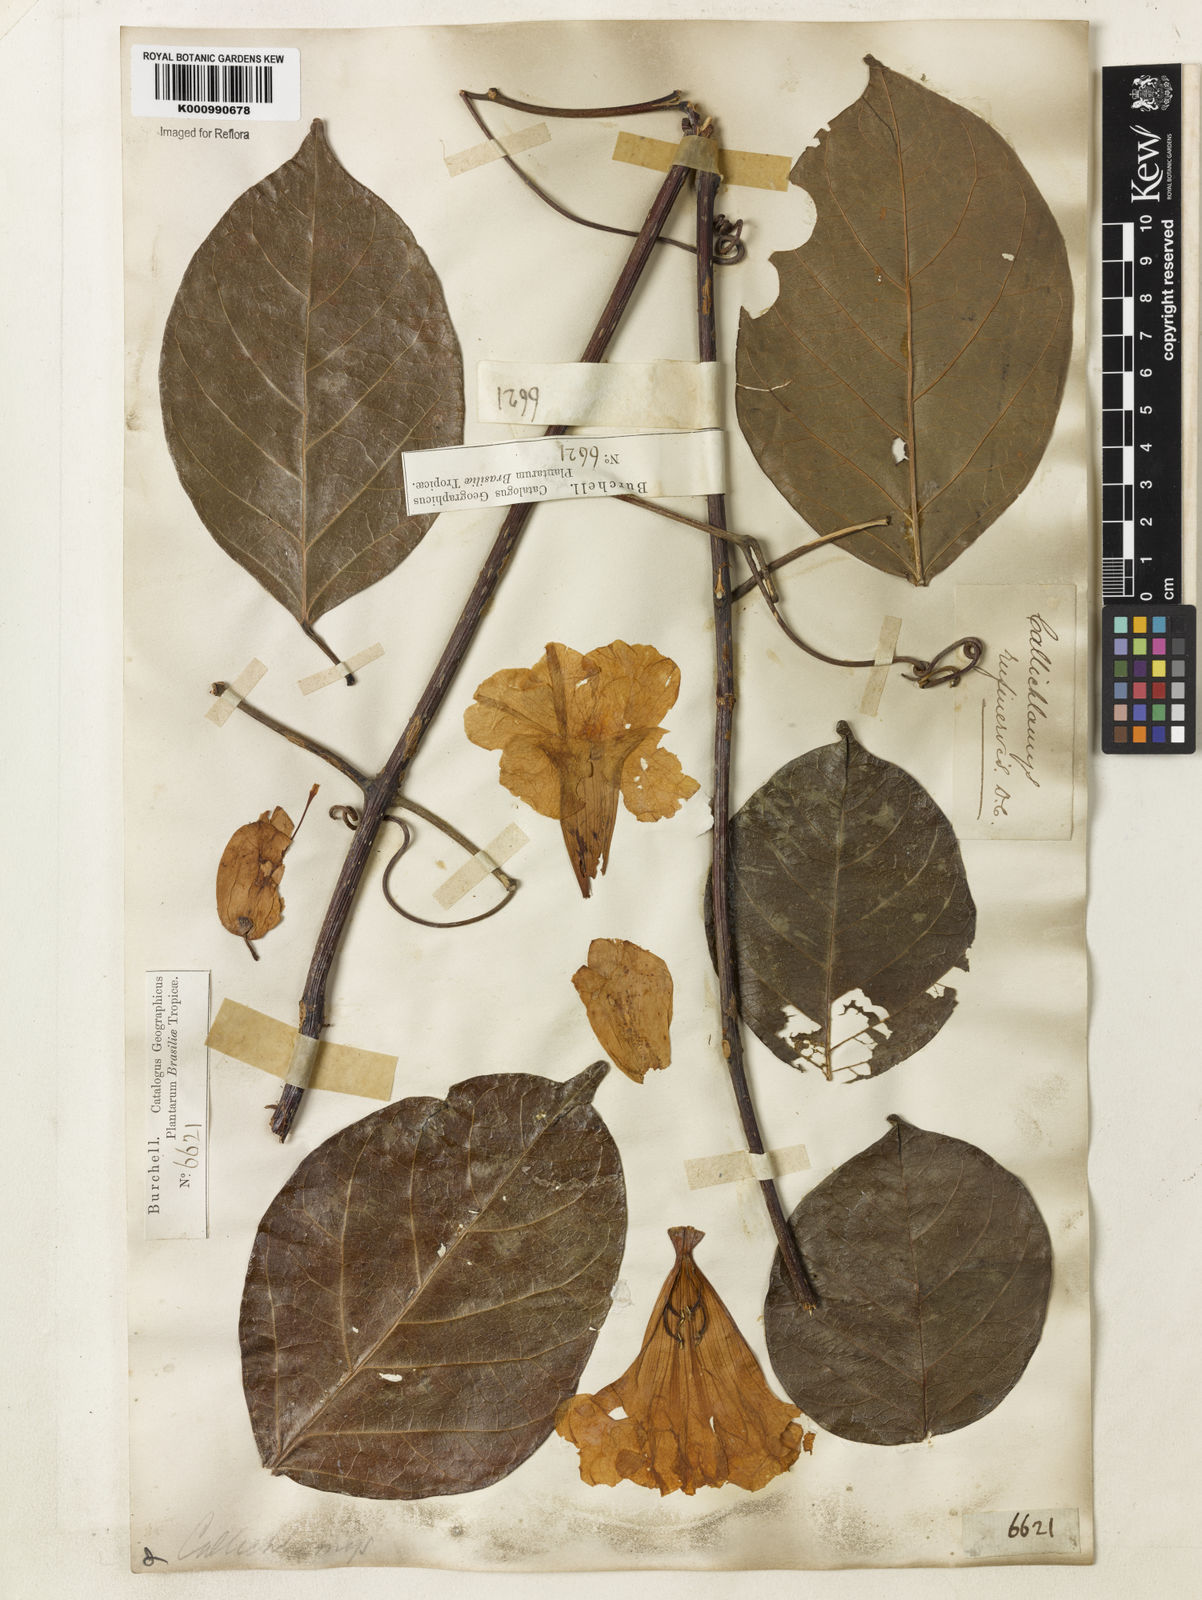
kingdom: Plantae
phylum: Tracheophyta
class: Magnoliopsida
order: Lamiales
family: Bignoniaceae
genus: Callichlamys
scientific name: Callichlamys latifolia
